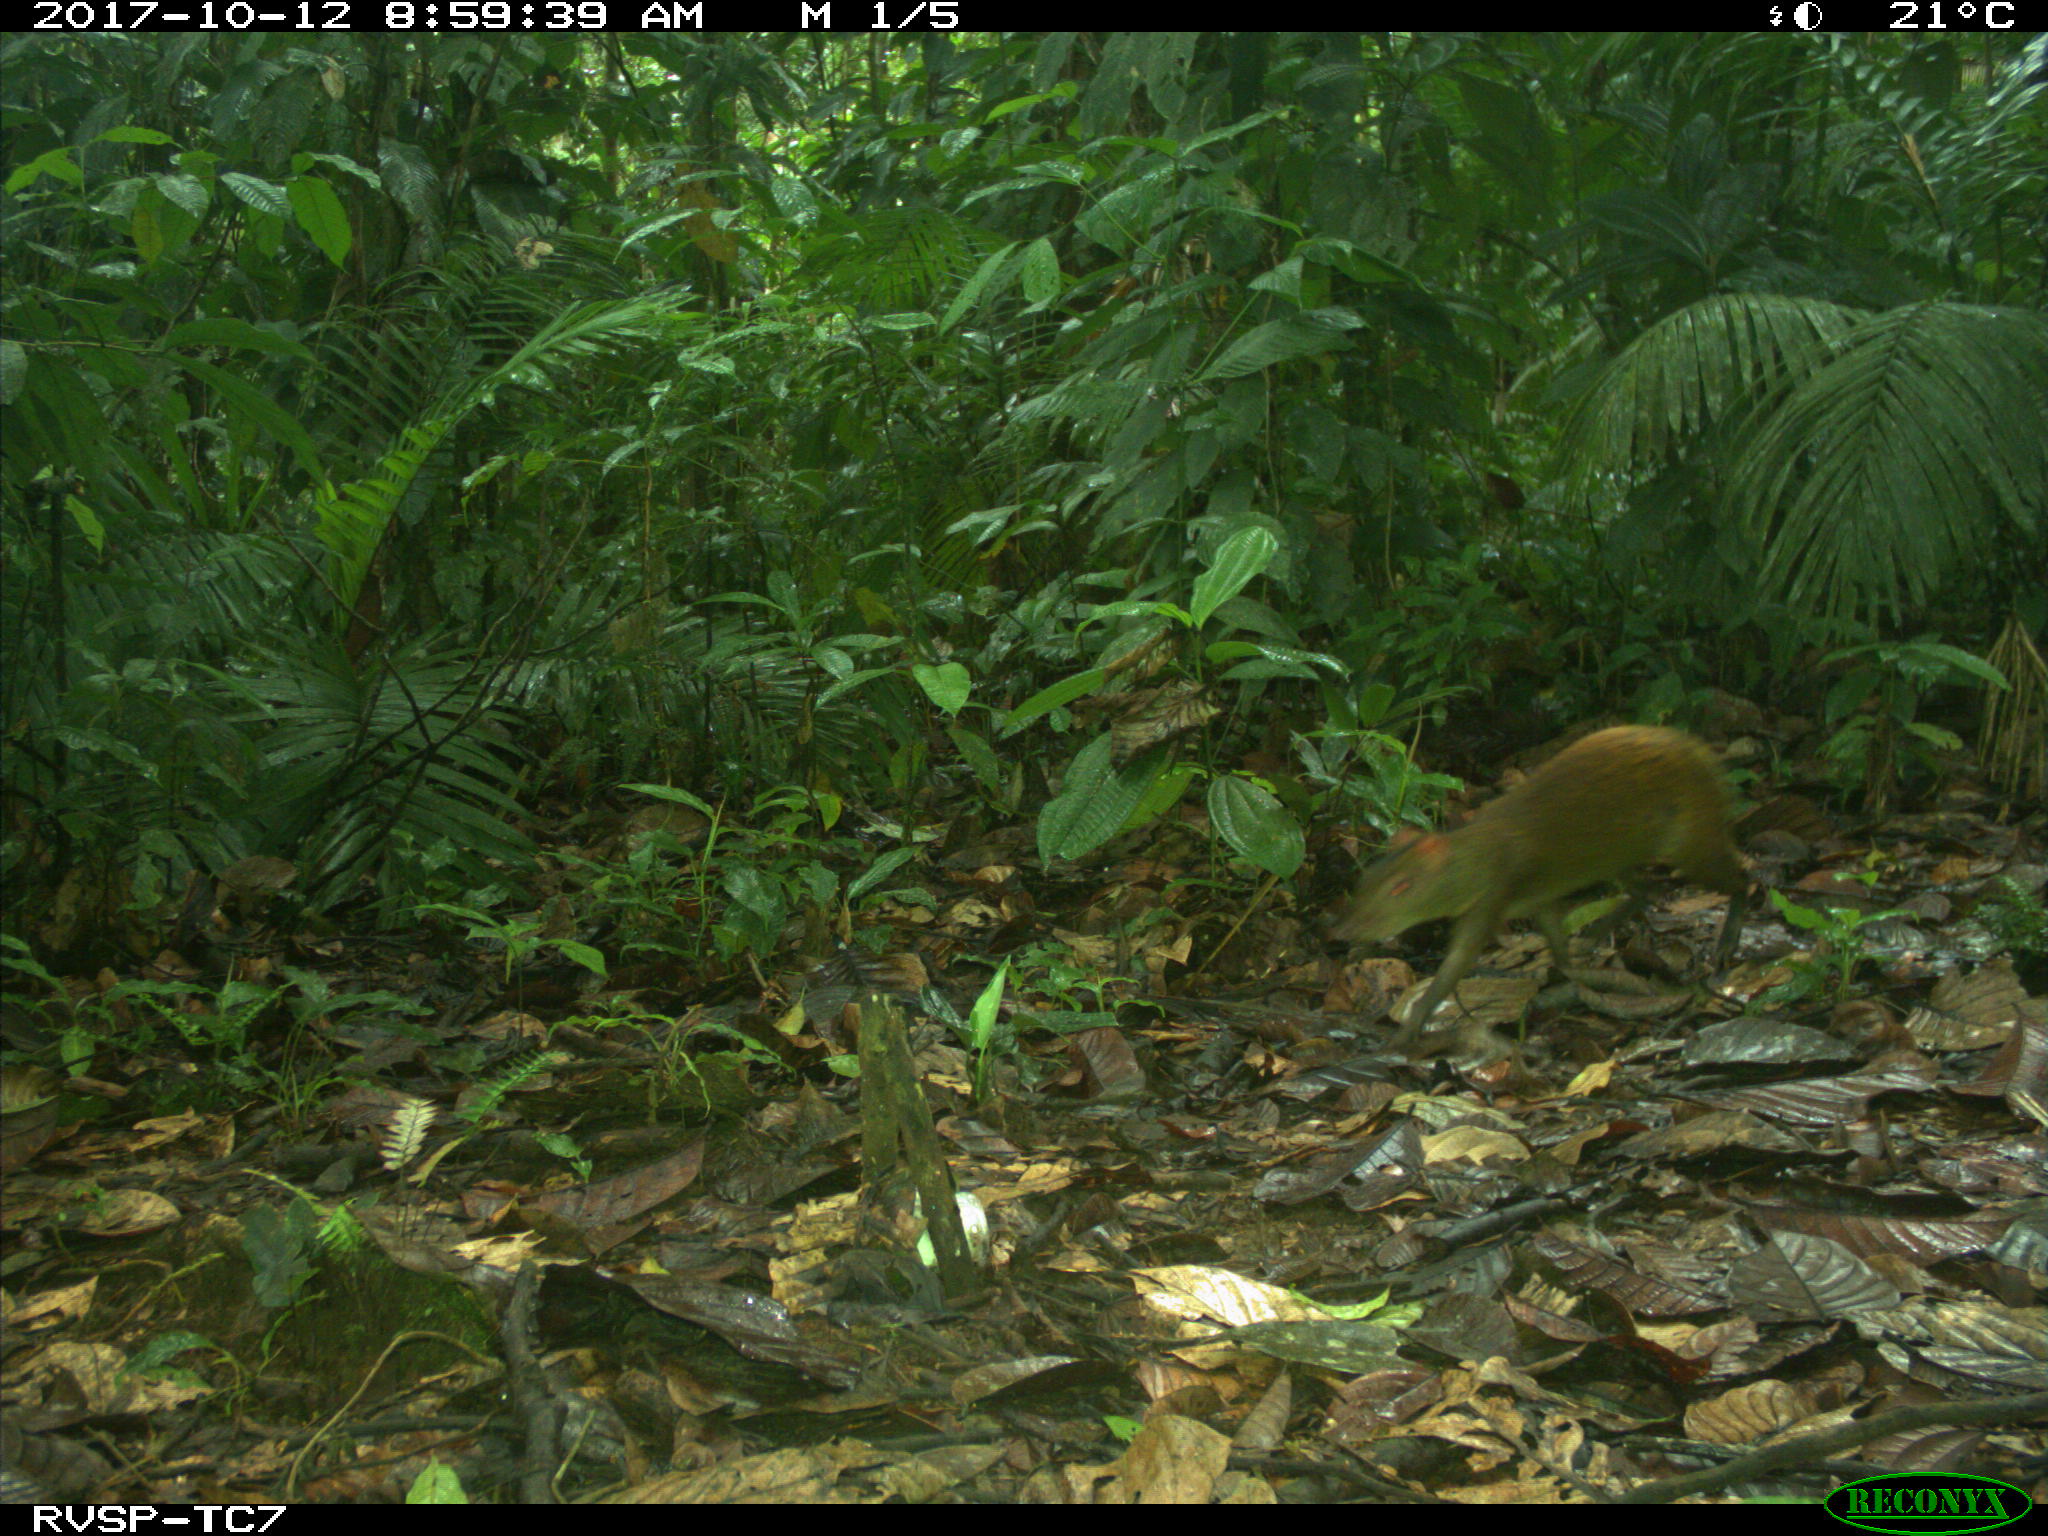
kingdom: Animalia
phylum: Chordata
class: Mammalia
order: Rodentia
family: Dasyproctidae
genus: Dasyprocta
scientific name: Dasyprocta punctata
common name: Central american agouti
